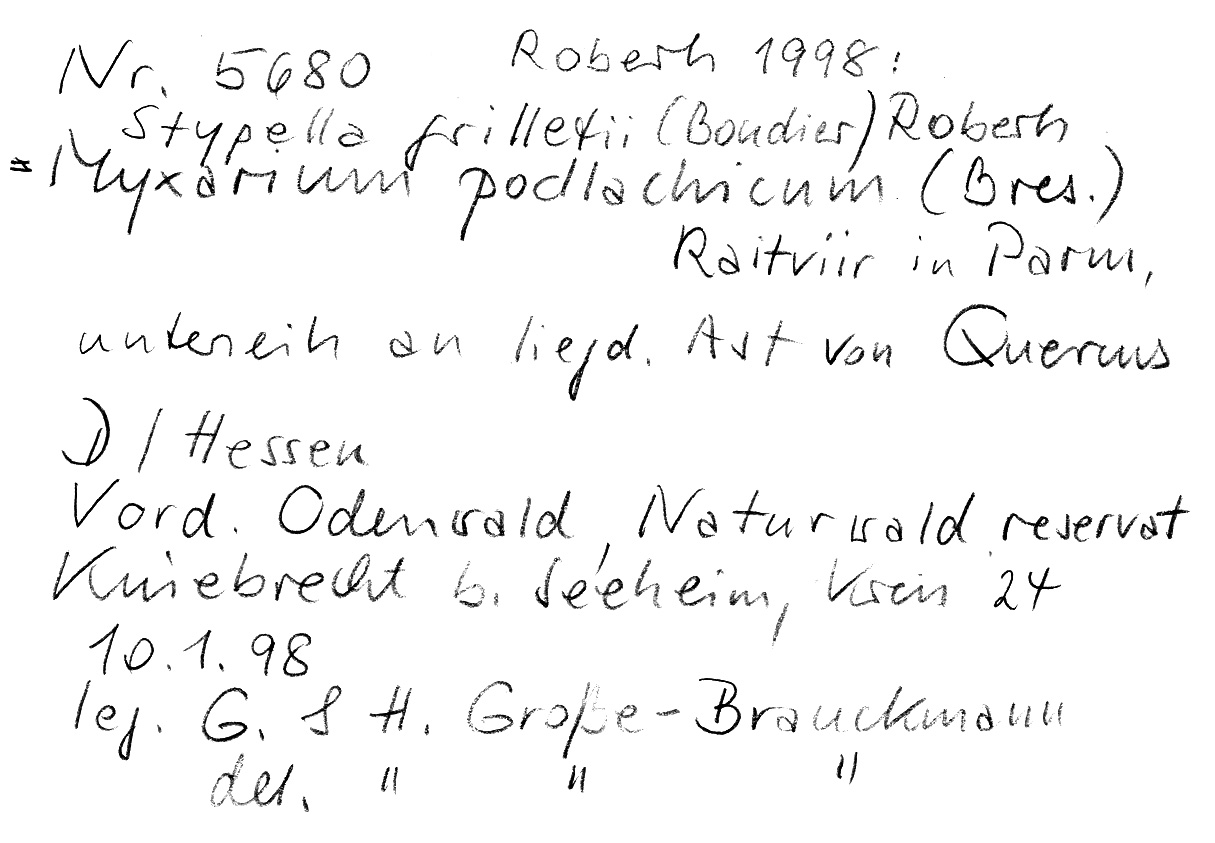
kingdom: Fungi
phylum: Basidiomycota
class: Agaricomycetes
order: Auriculariales
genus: Stypella
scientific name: Stypella grilletii
